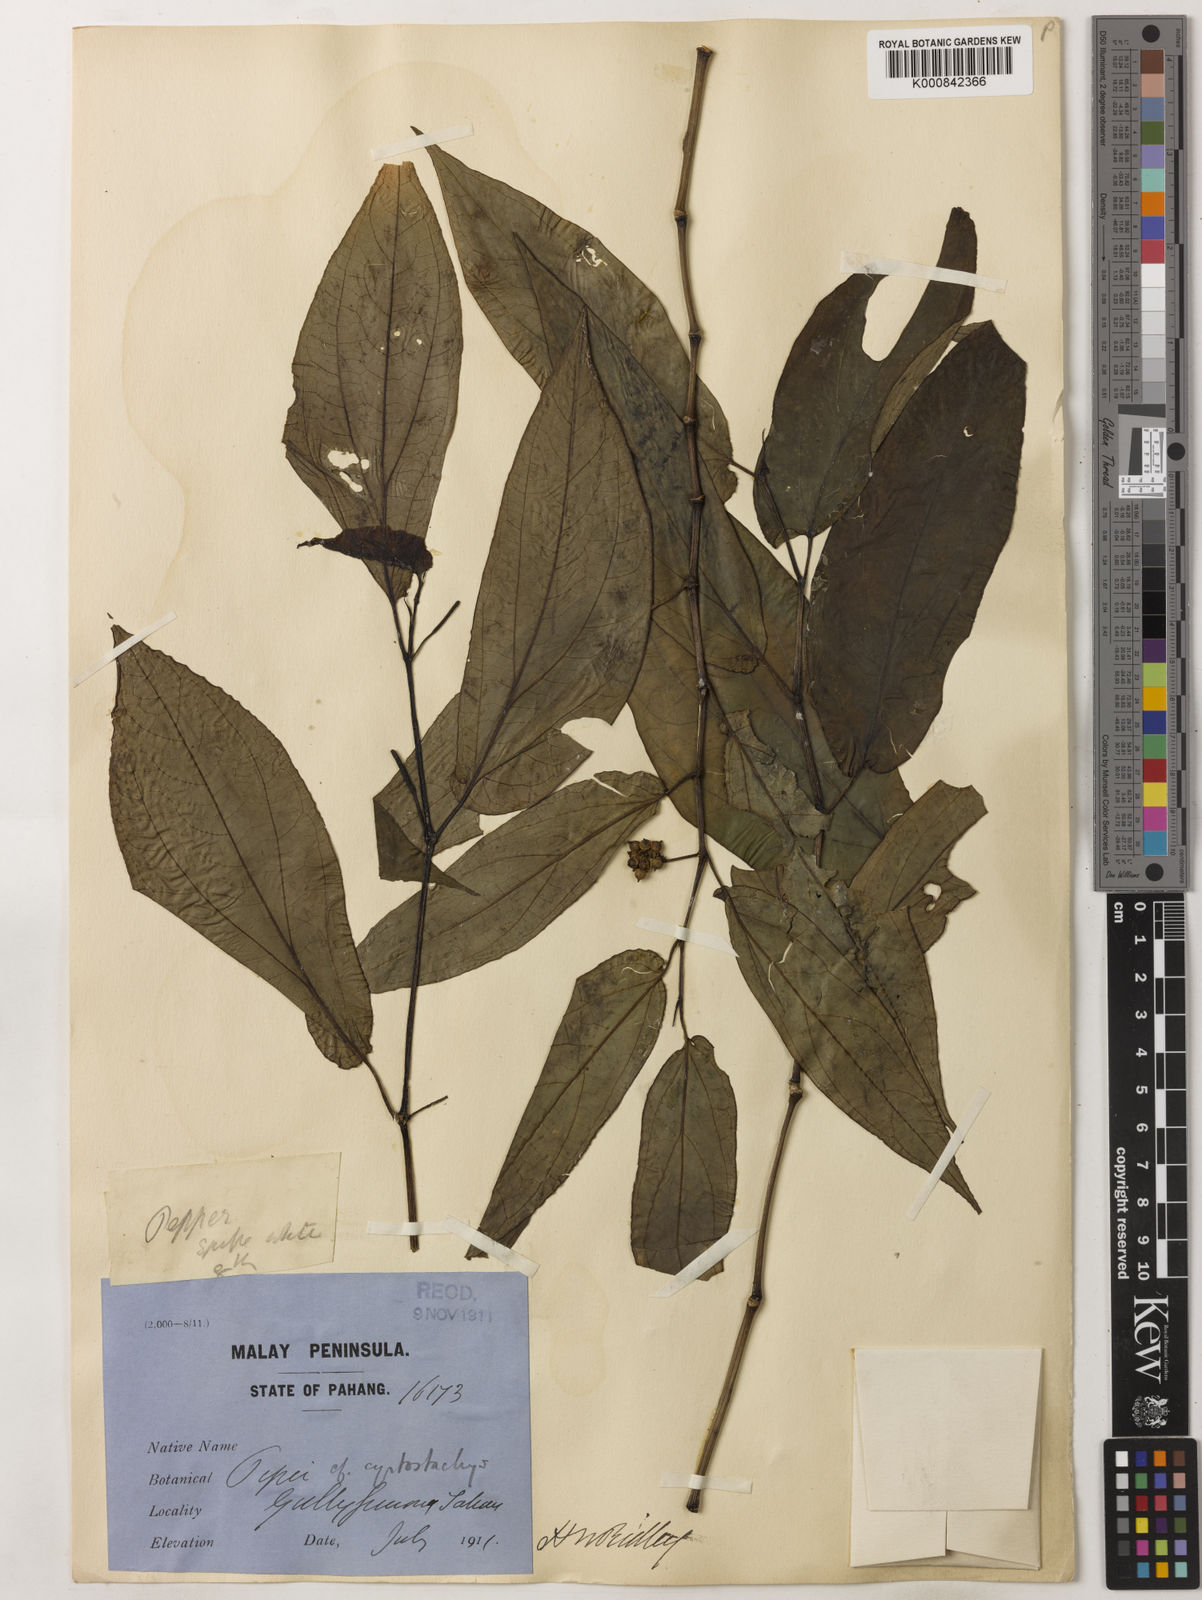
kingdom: Plantae
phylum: Tracheophyta
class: Magnoliopsida
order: Piperales
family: Piperaceae
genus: Piper
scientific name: Piper cyrtostachys
